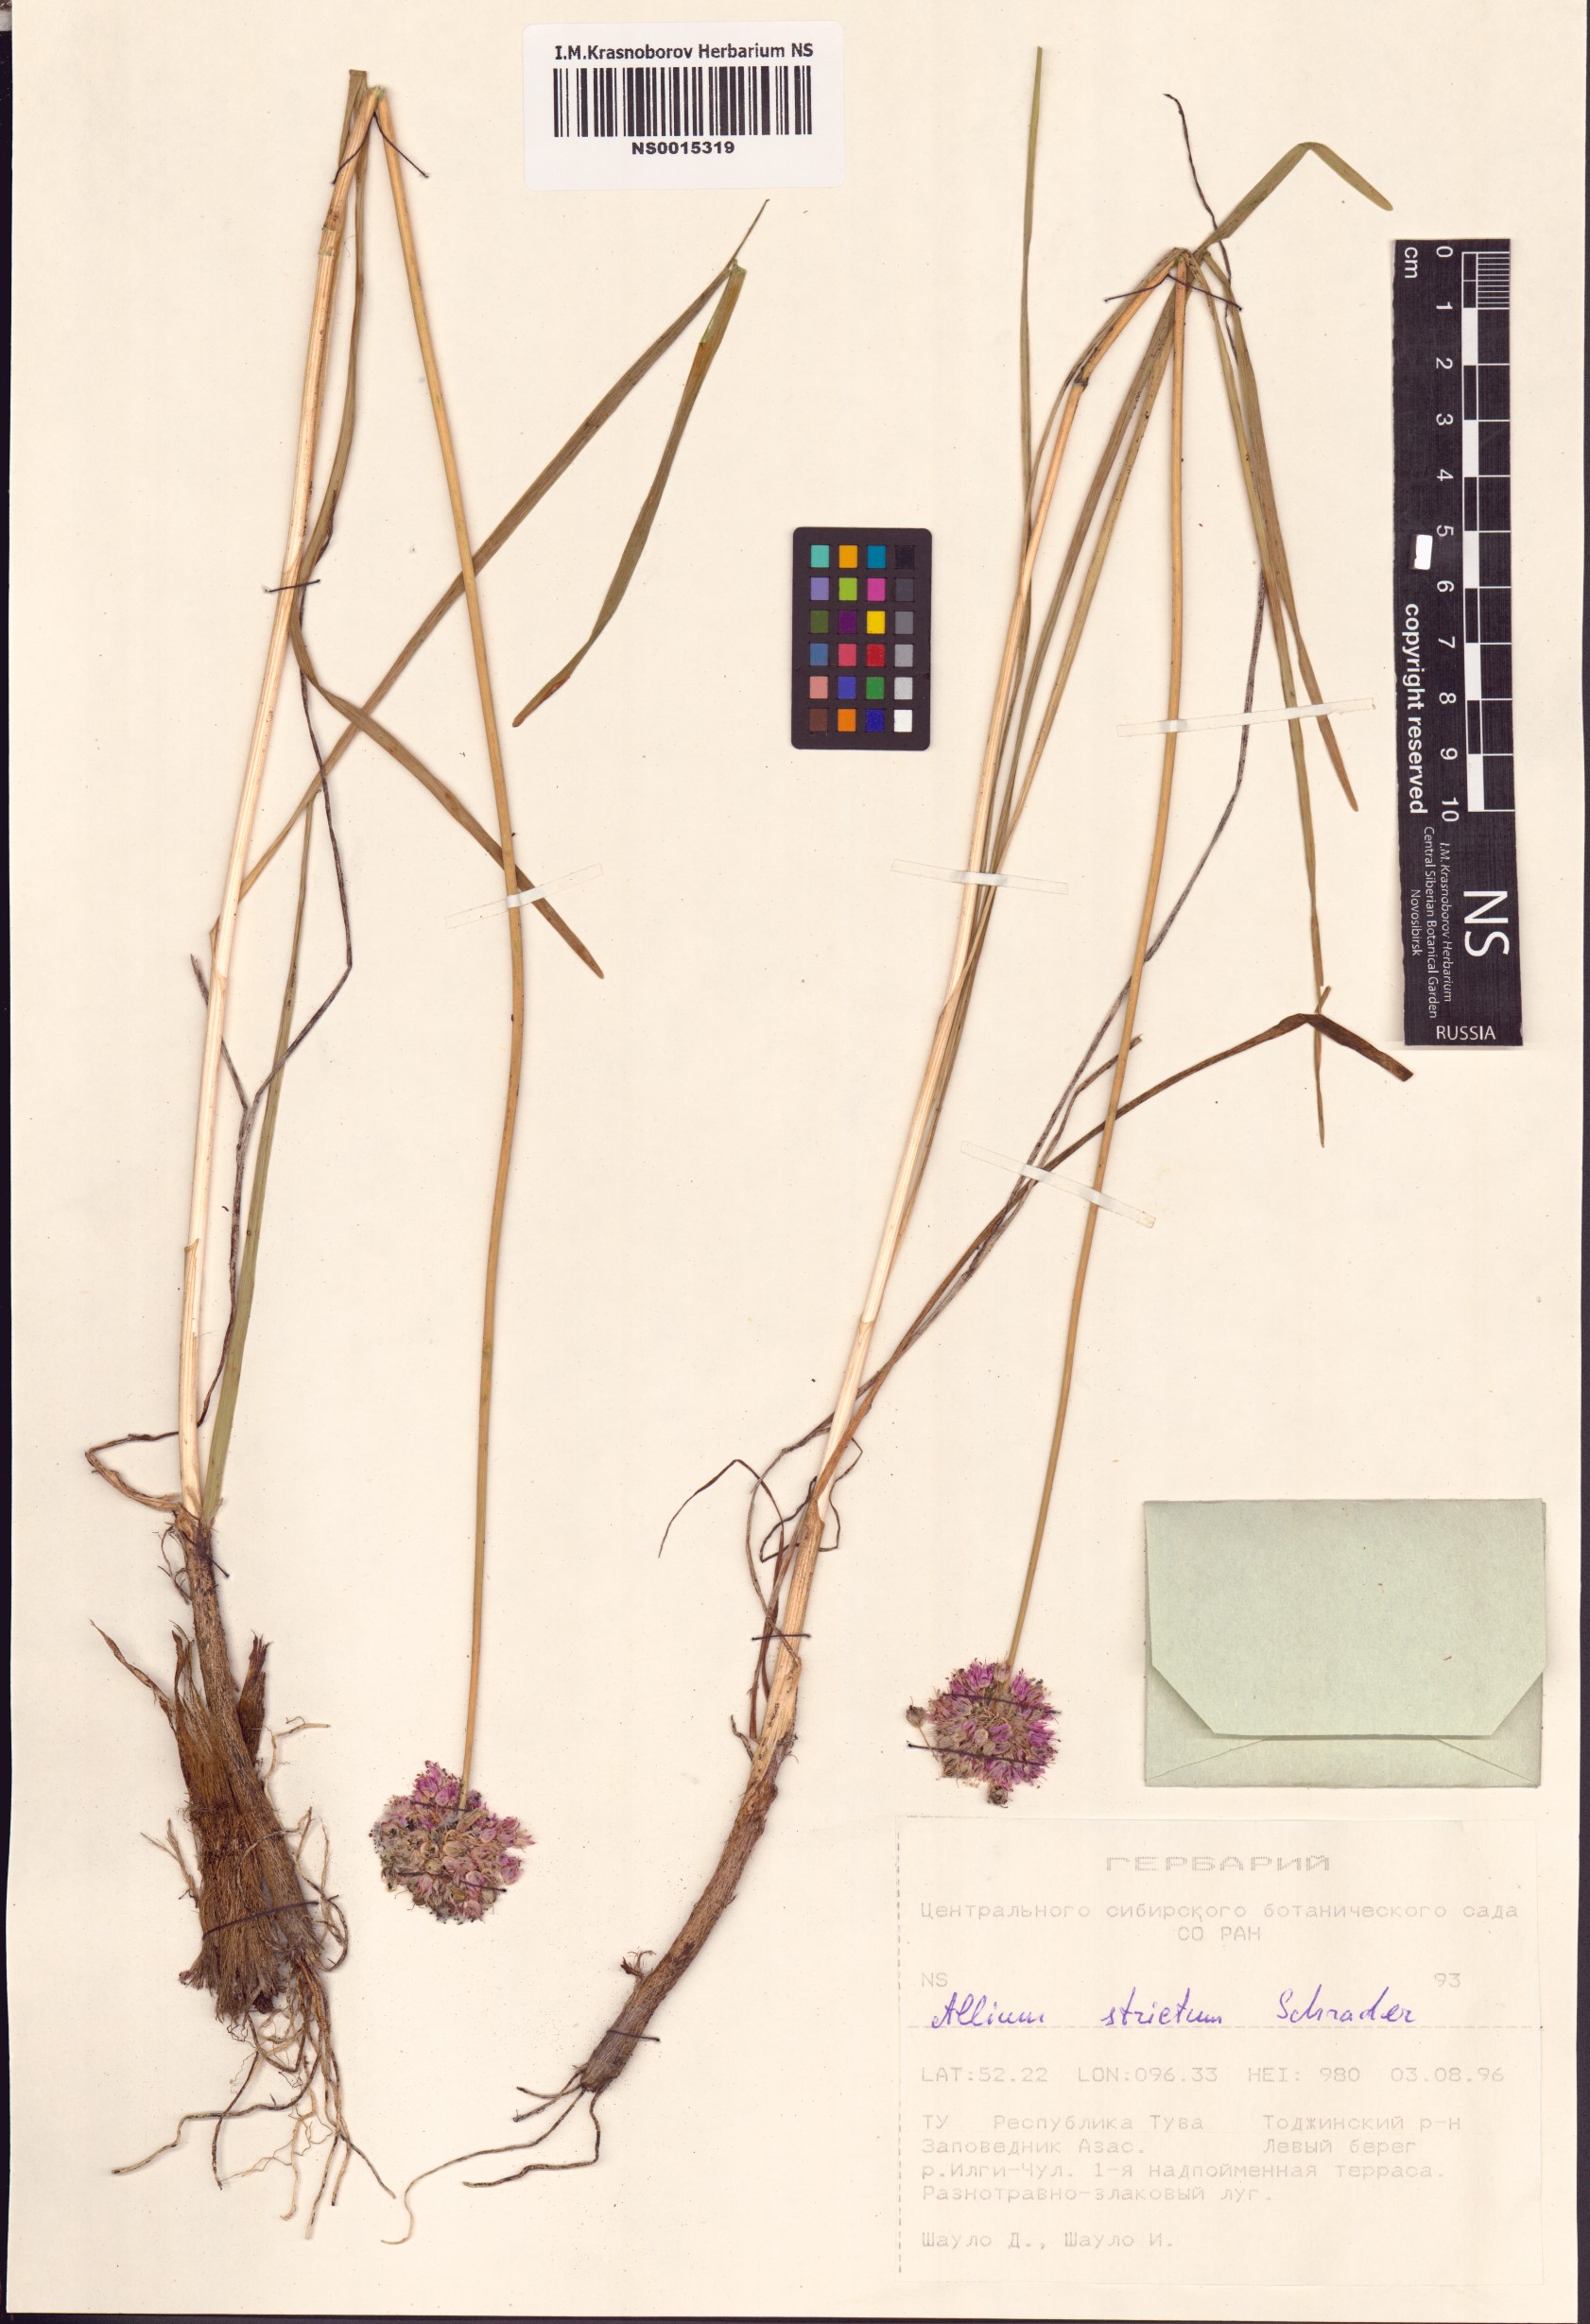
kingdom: Plantae
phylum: Tracheophyta
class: Liliopsida
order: Asparagales
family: Amaryllidaceae
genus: Allium
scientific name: Allium strictum
